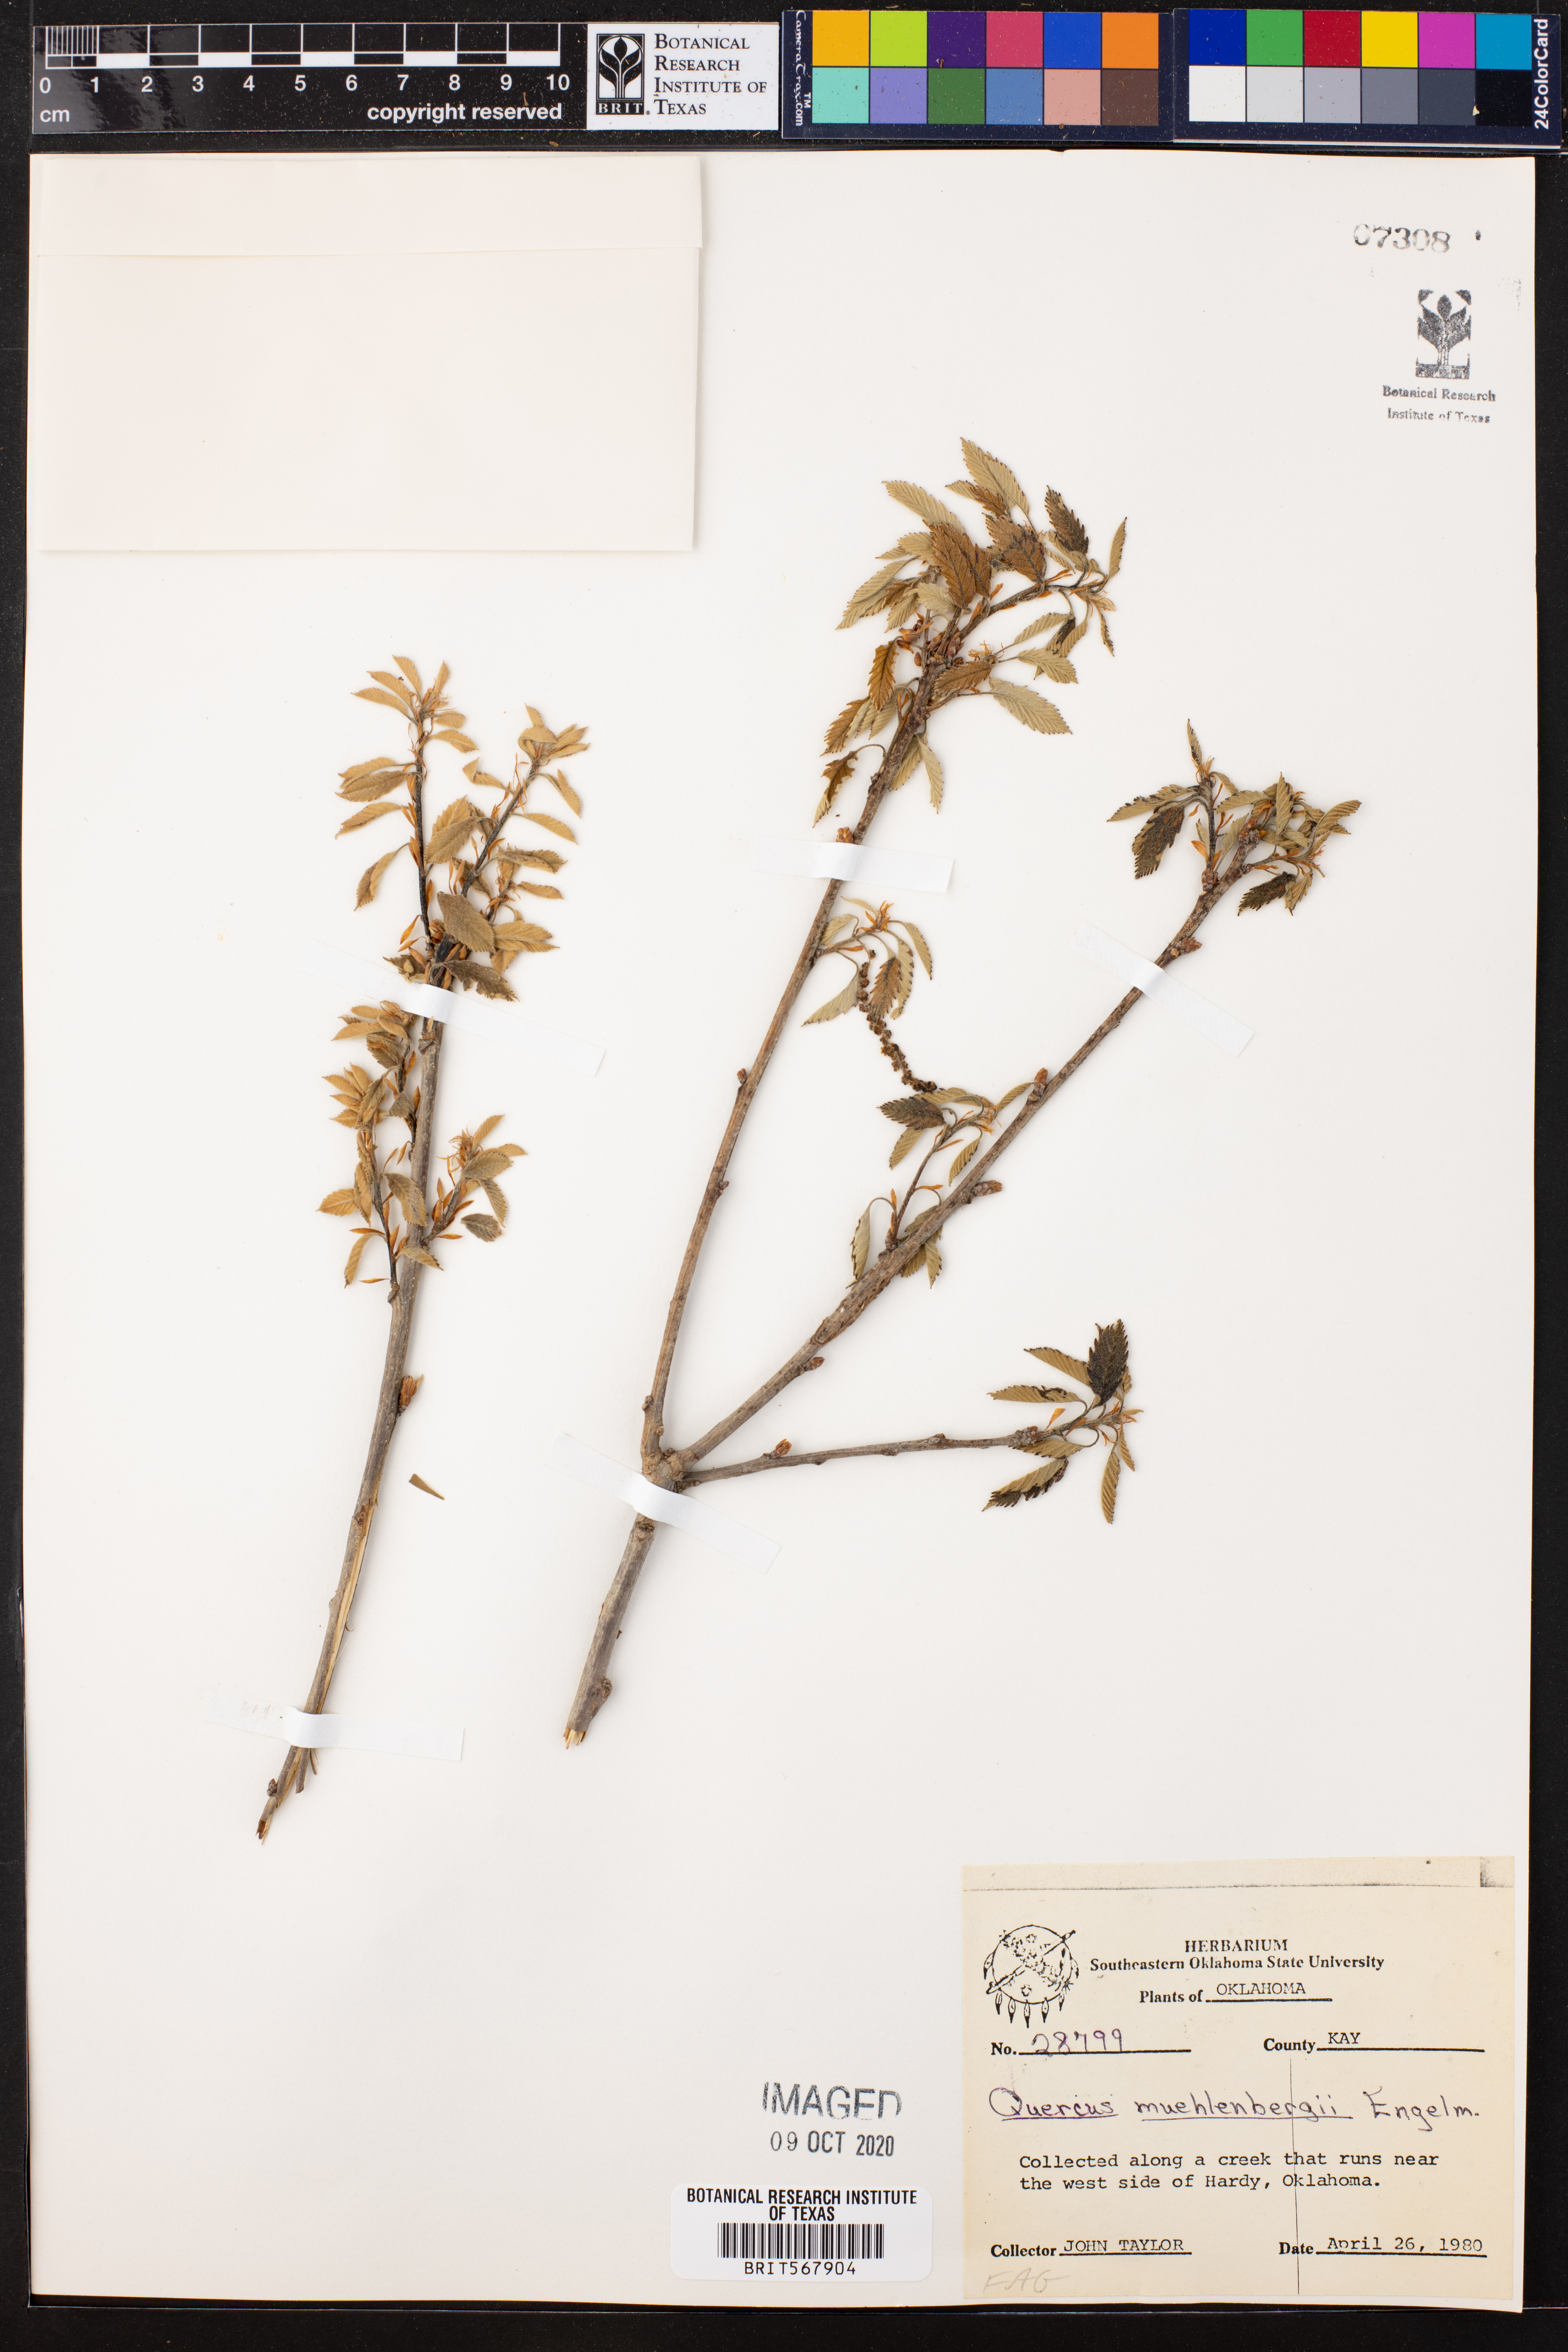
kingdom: Plantae
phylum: Tracheophyta
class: Magnoliopsida
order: Fagales
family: Fagaceae
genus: Quercus
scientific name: Quercus muehlenbergii
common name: Chinkapin oak
